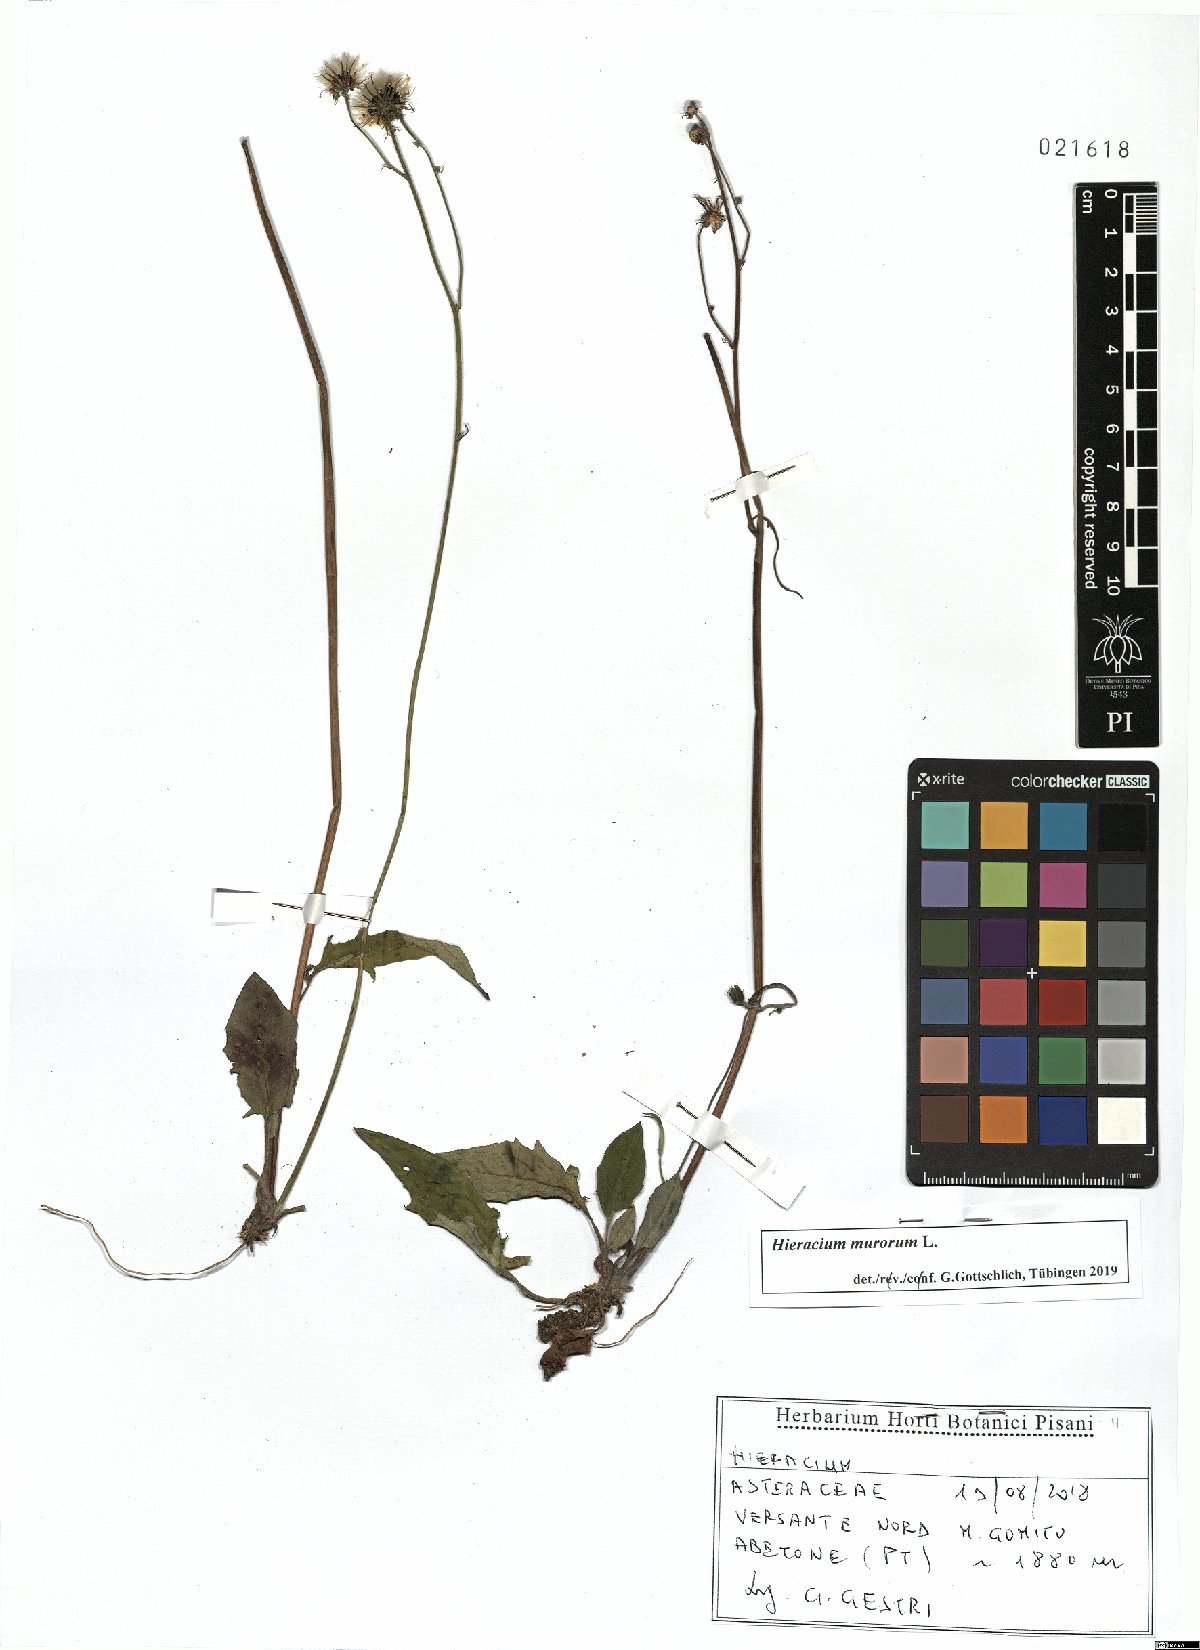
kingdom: Plantae
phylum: Tracheophyta
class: Magnoliopsida
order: Asterales
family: Asteraceae
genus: Hieracium
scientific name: Hieracium murorum
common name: Wall hawkweed
